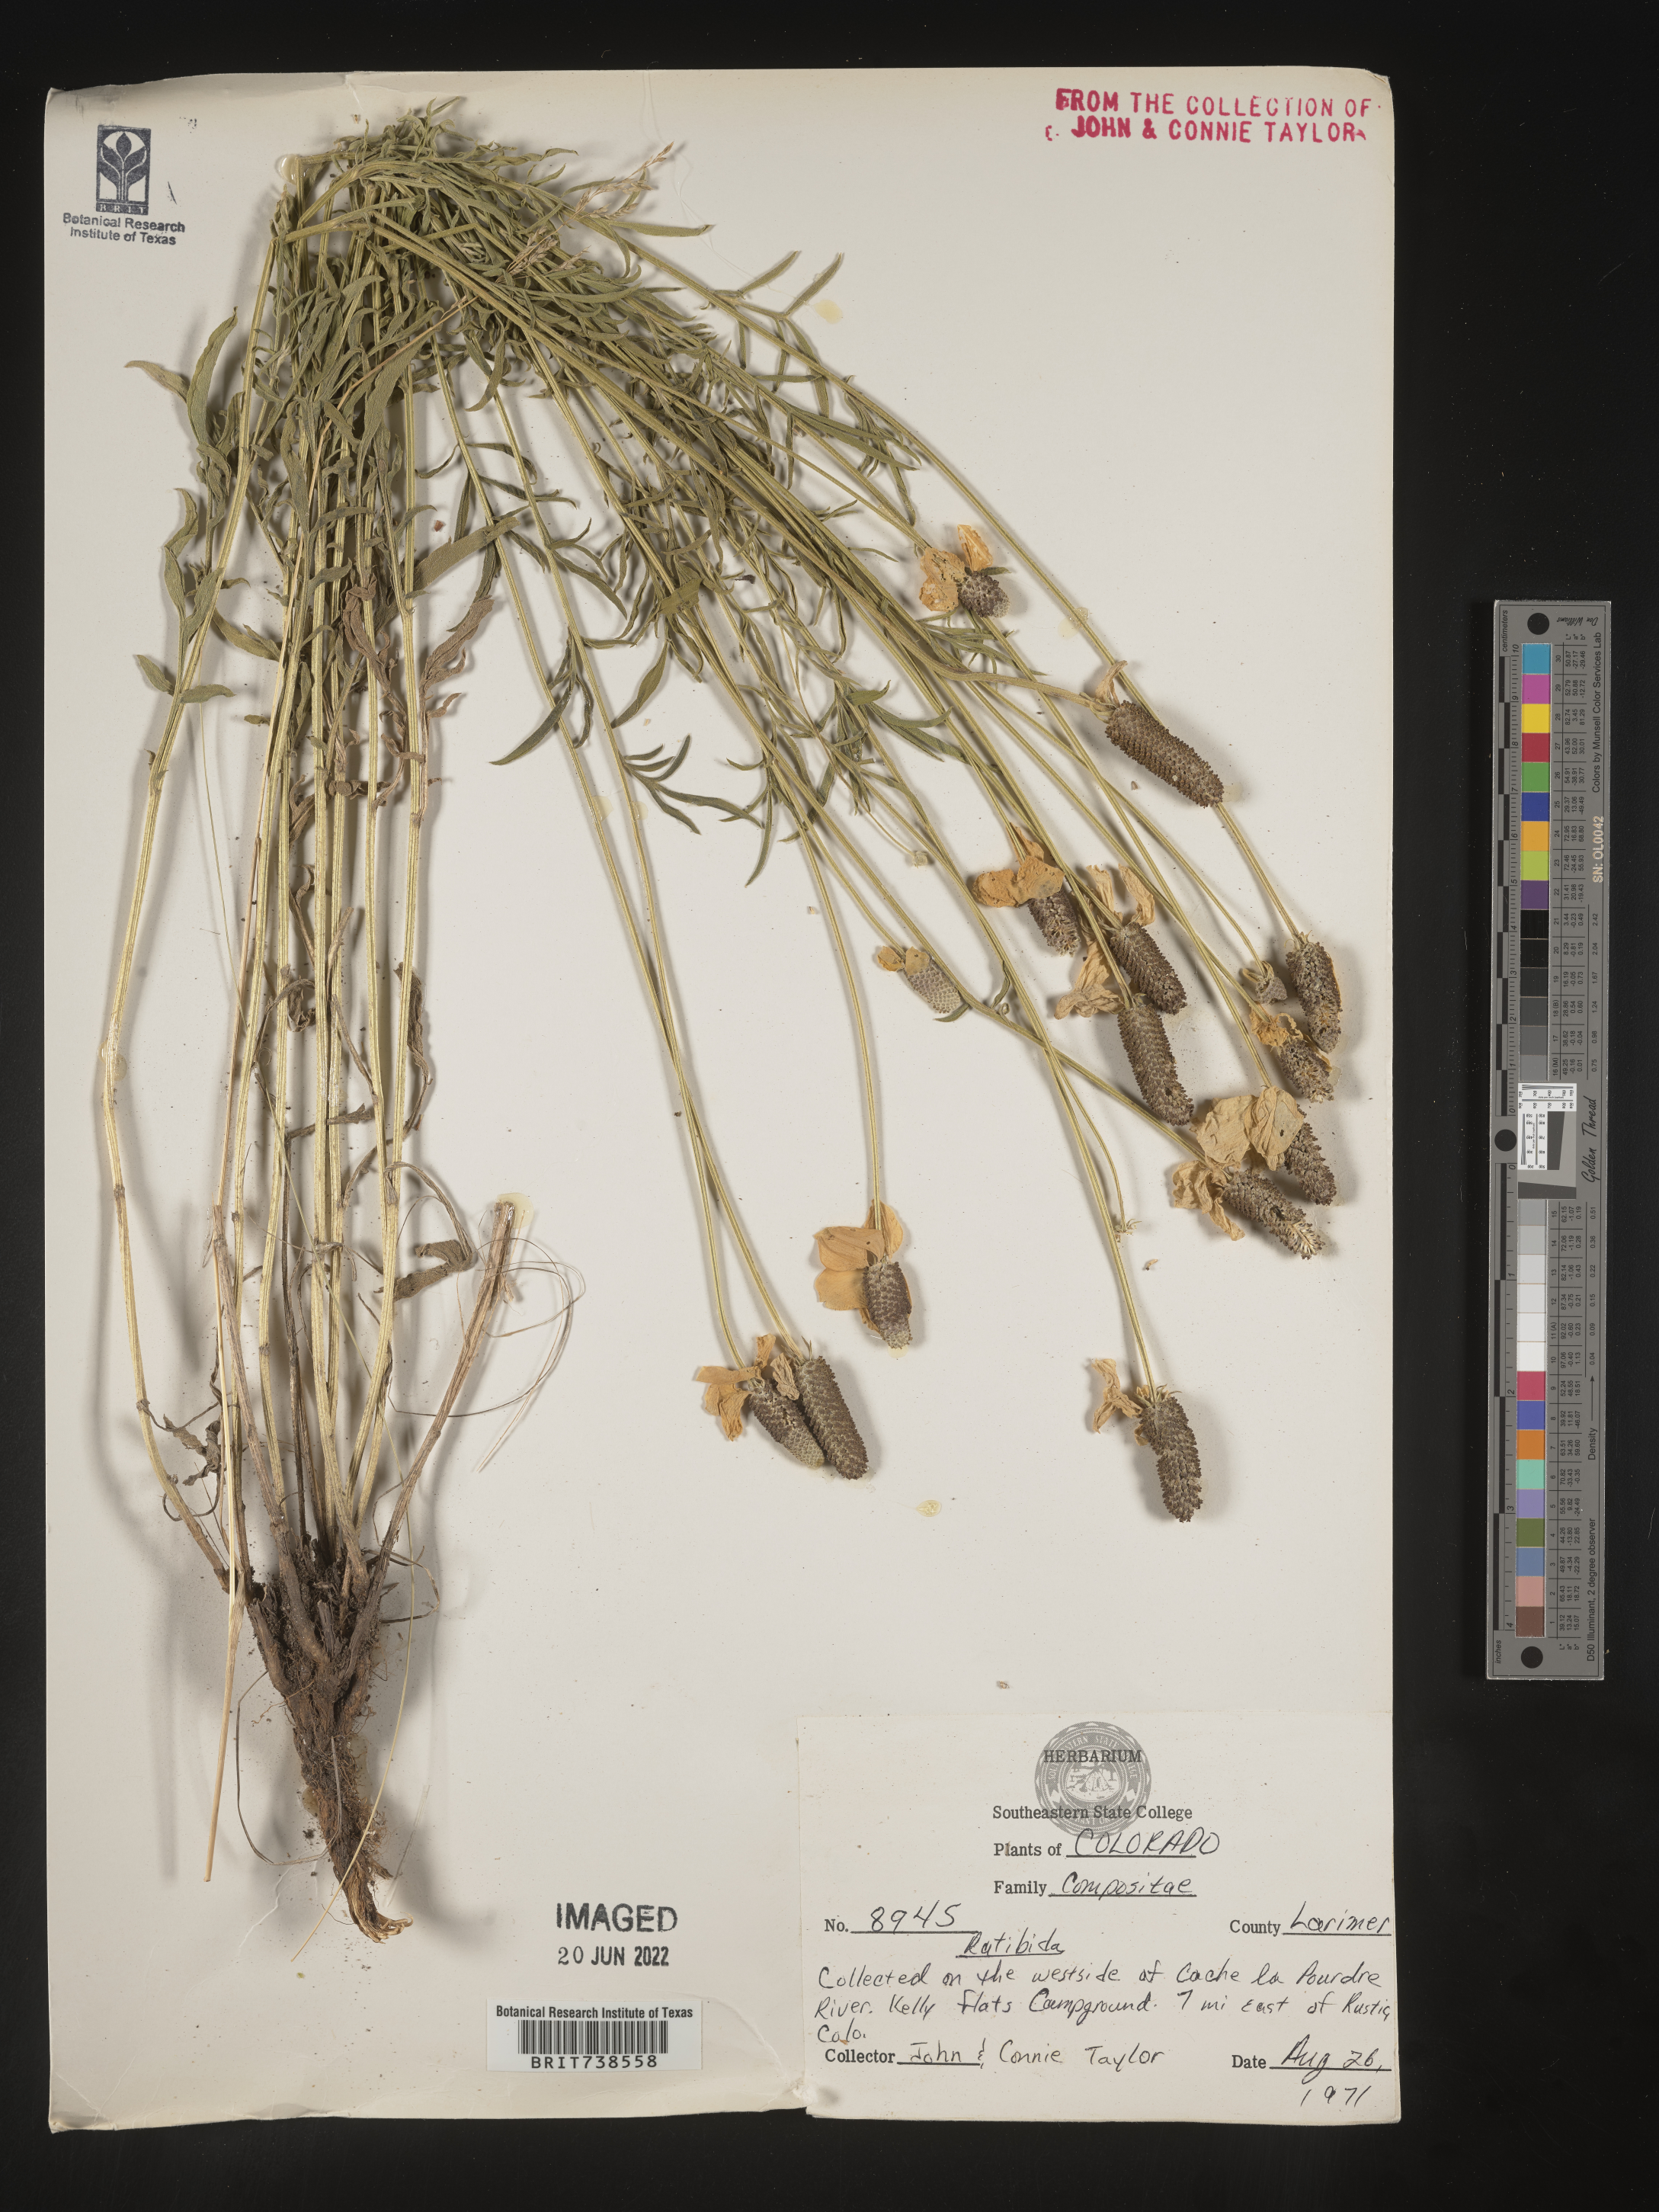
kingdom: Plantae
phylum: Tracheophyta
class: Magnoliopsida
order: Asterales
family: Asteraceae
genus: Ratibida
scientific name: Ratibida columnifera
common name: Prairie coneflower
